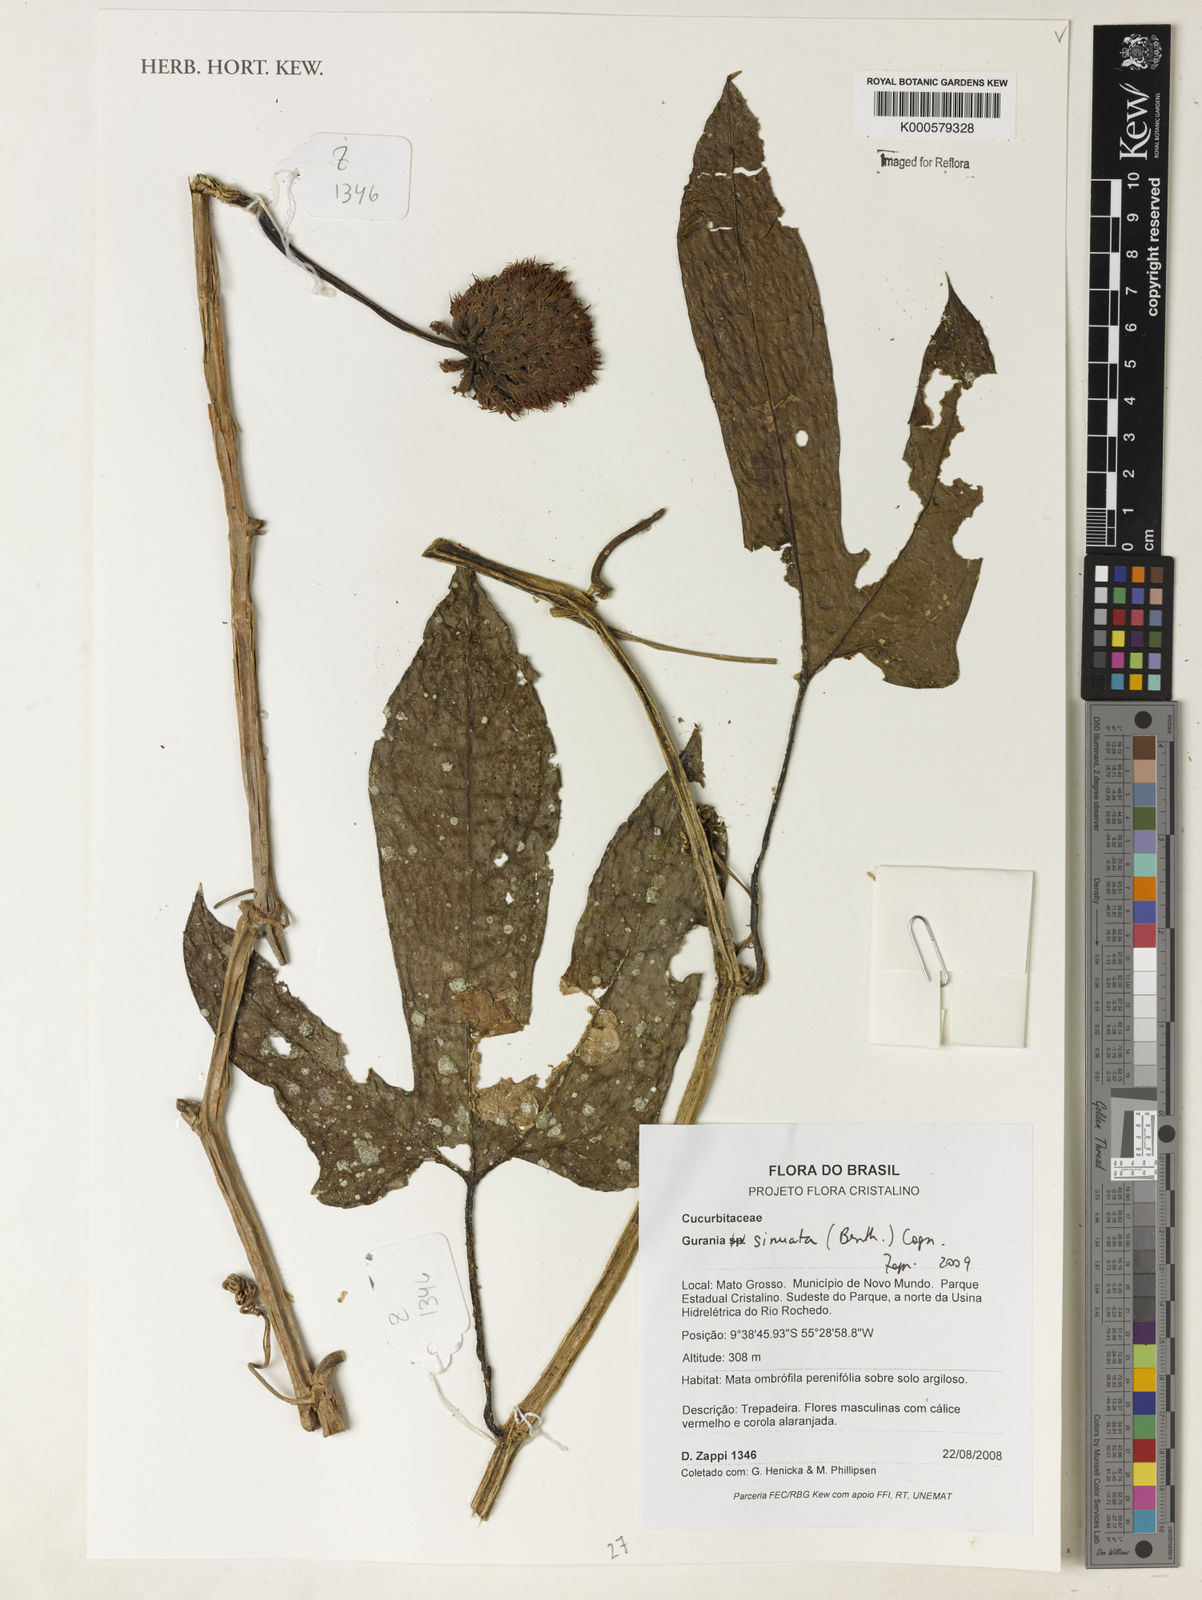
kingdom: Plantae
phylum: Tracheophyta
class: Magnoliopsida
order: Cucurbitales
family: Cucurbitaceae
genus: Gurania
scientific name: Gurania sinuata
